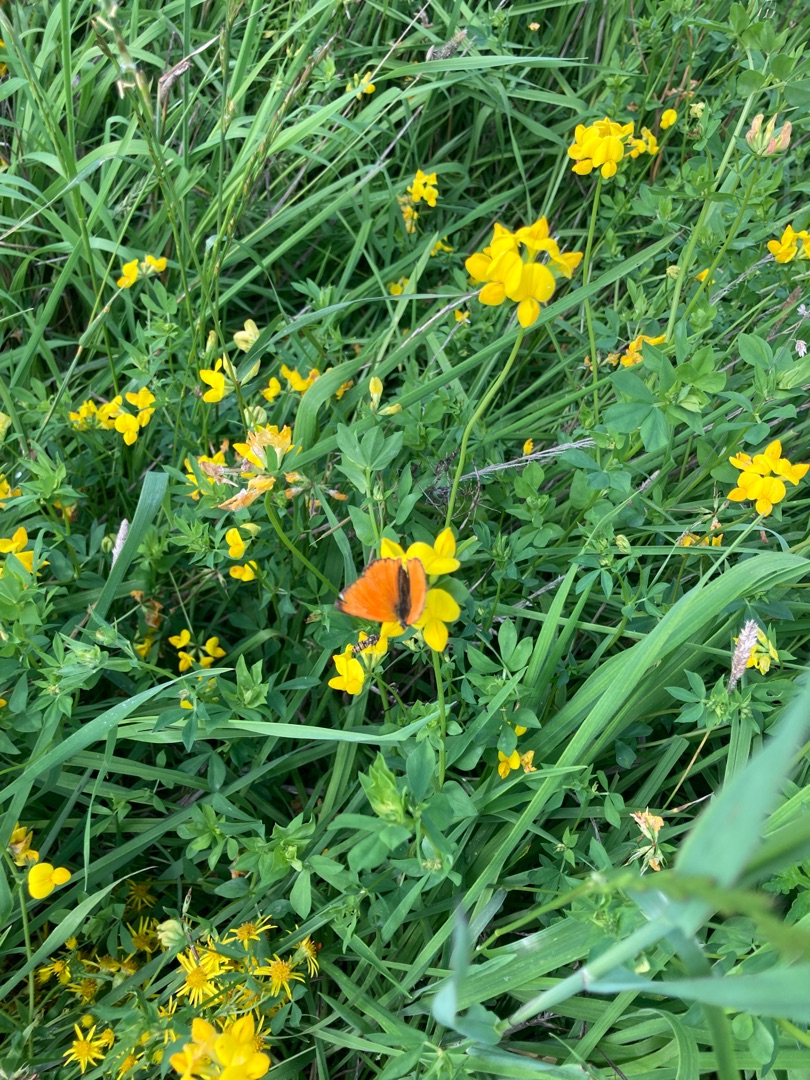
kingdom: Animalia
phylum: Arthropoda
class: Insecta
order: Lepidoptera
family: Lycaenidae
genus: Lycaena
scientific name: Lycaena virgaureae
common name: Dukatsommerfugl
